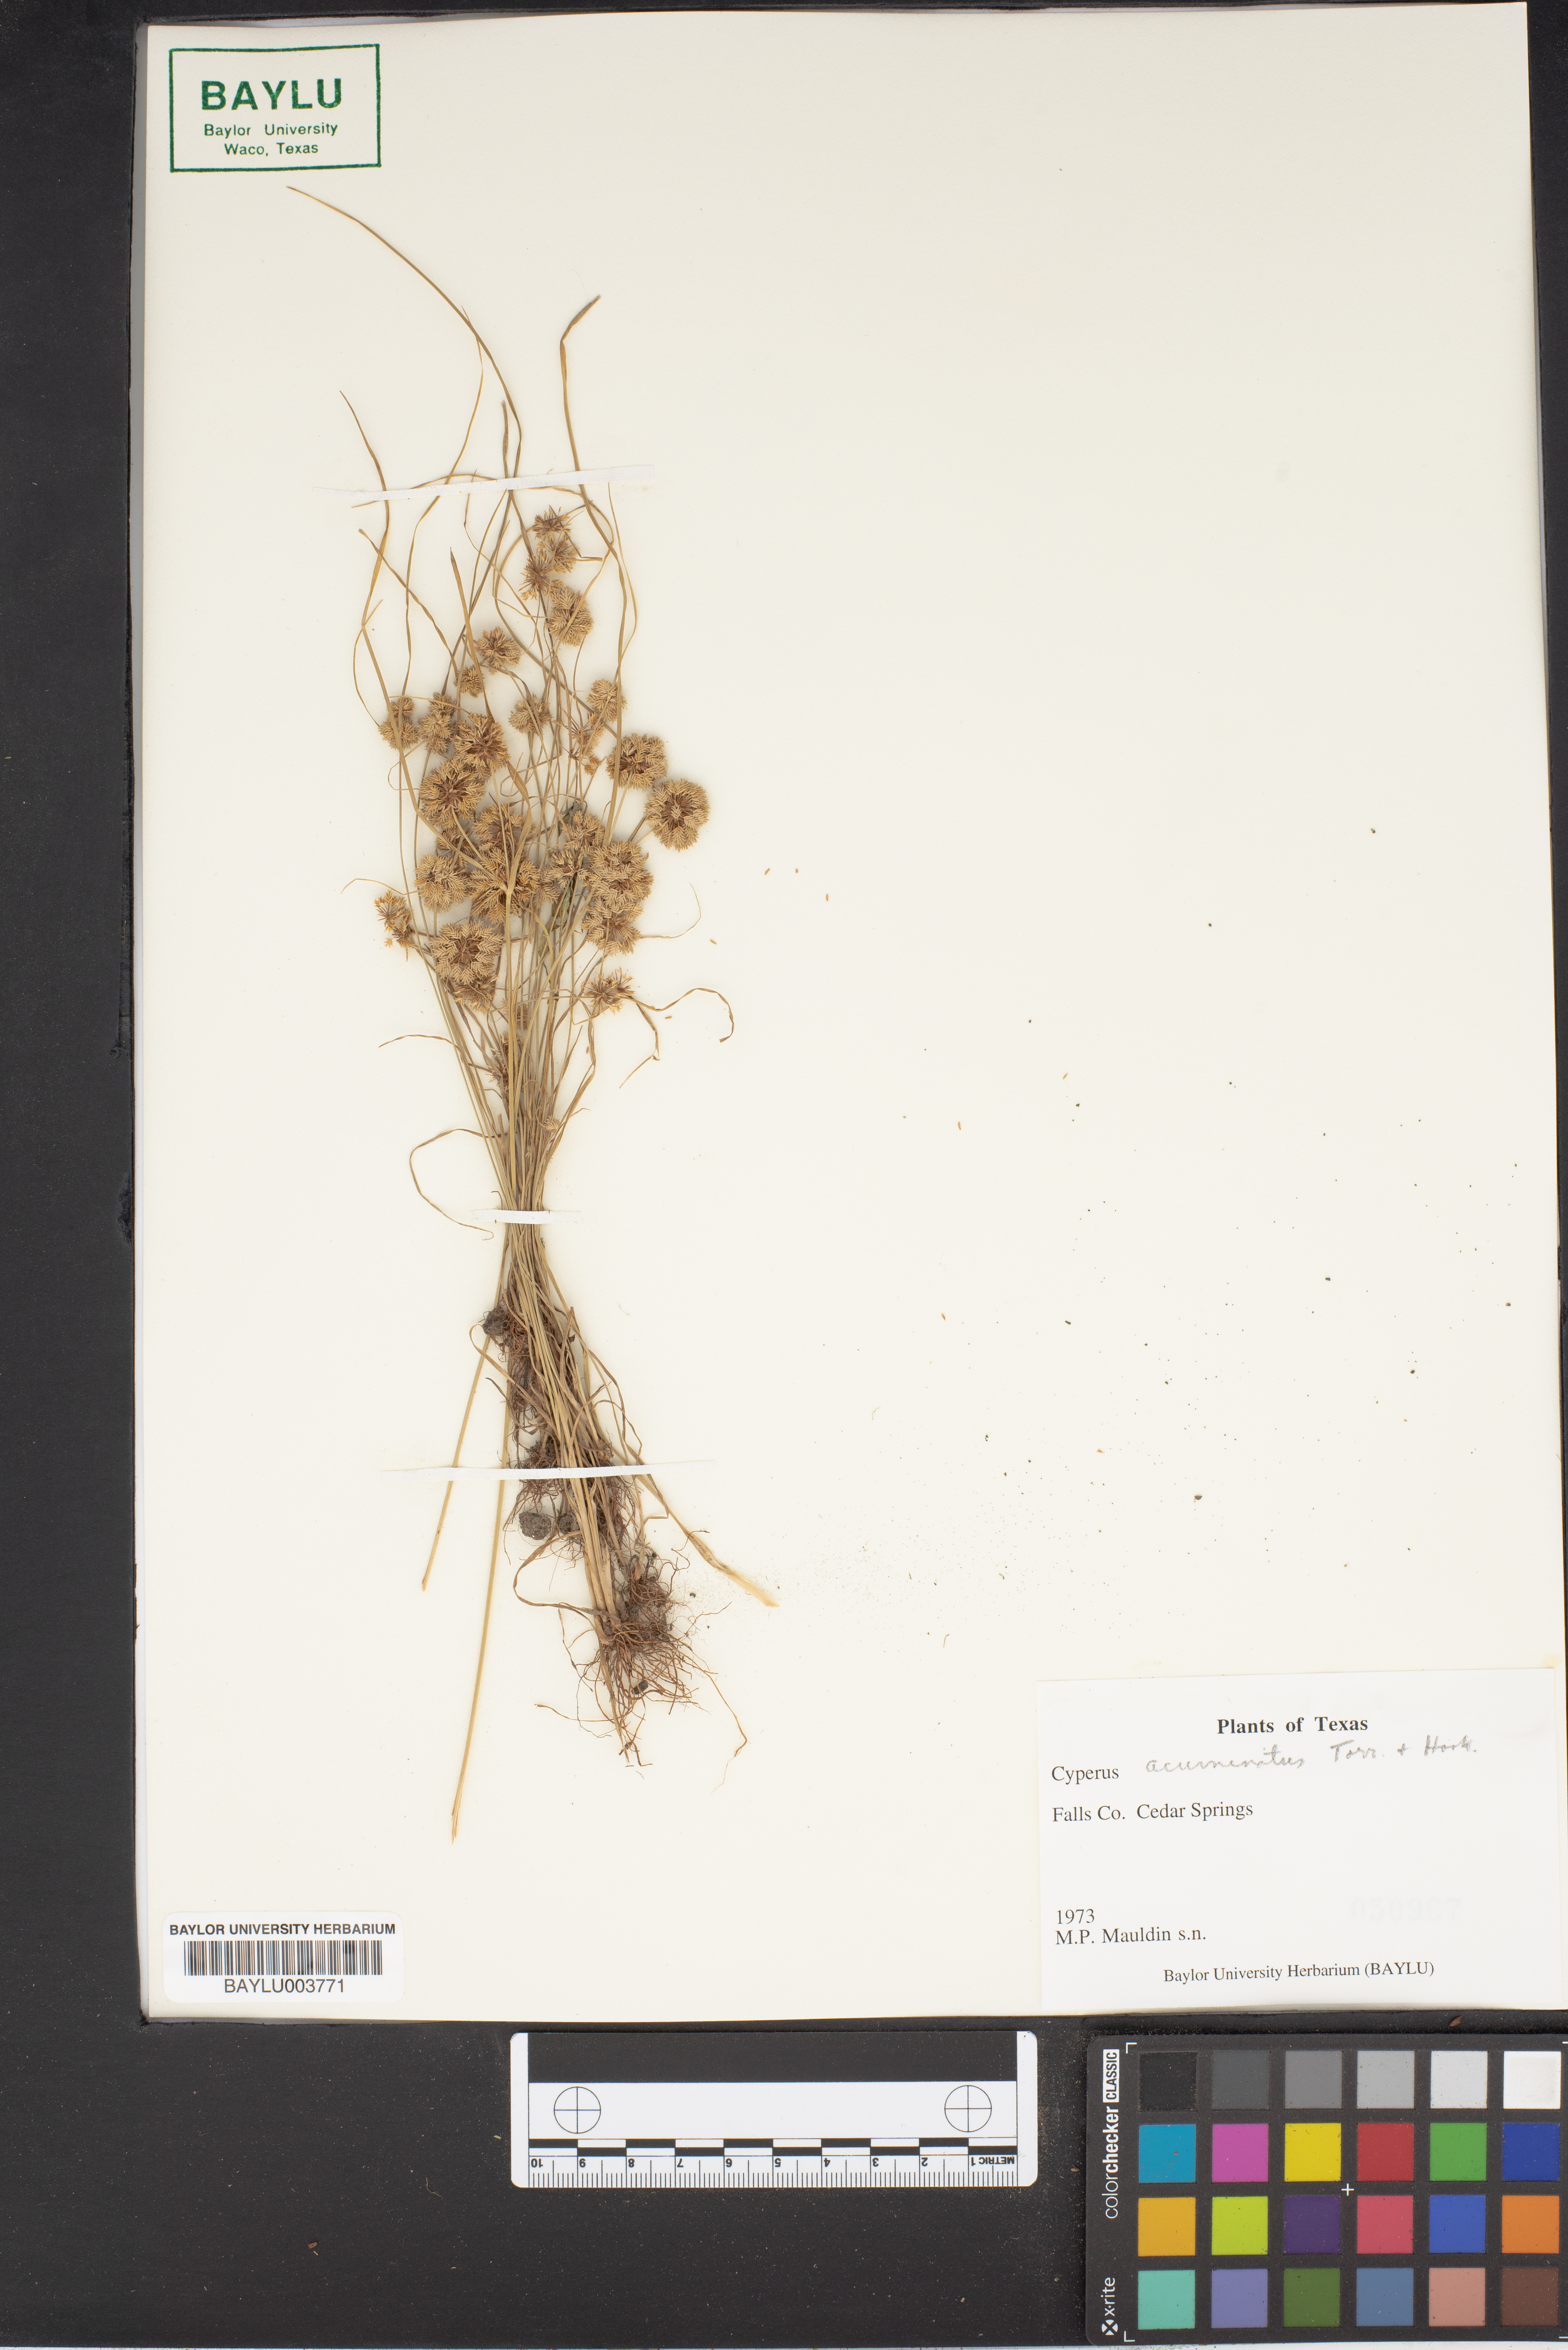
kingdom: Plantae
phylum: Tracheophyta
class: Liliopsida
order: Poales
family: Cyperaceae
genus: Cyperus
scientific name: Cyperus acuminatus
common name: Short-pointed cyperus
